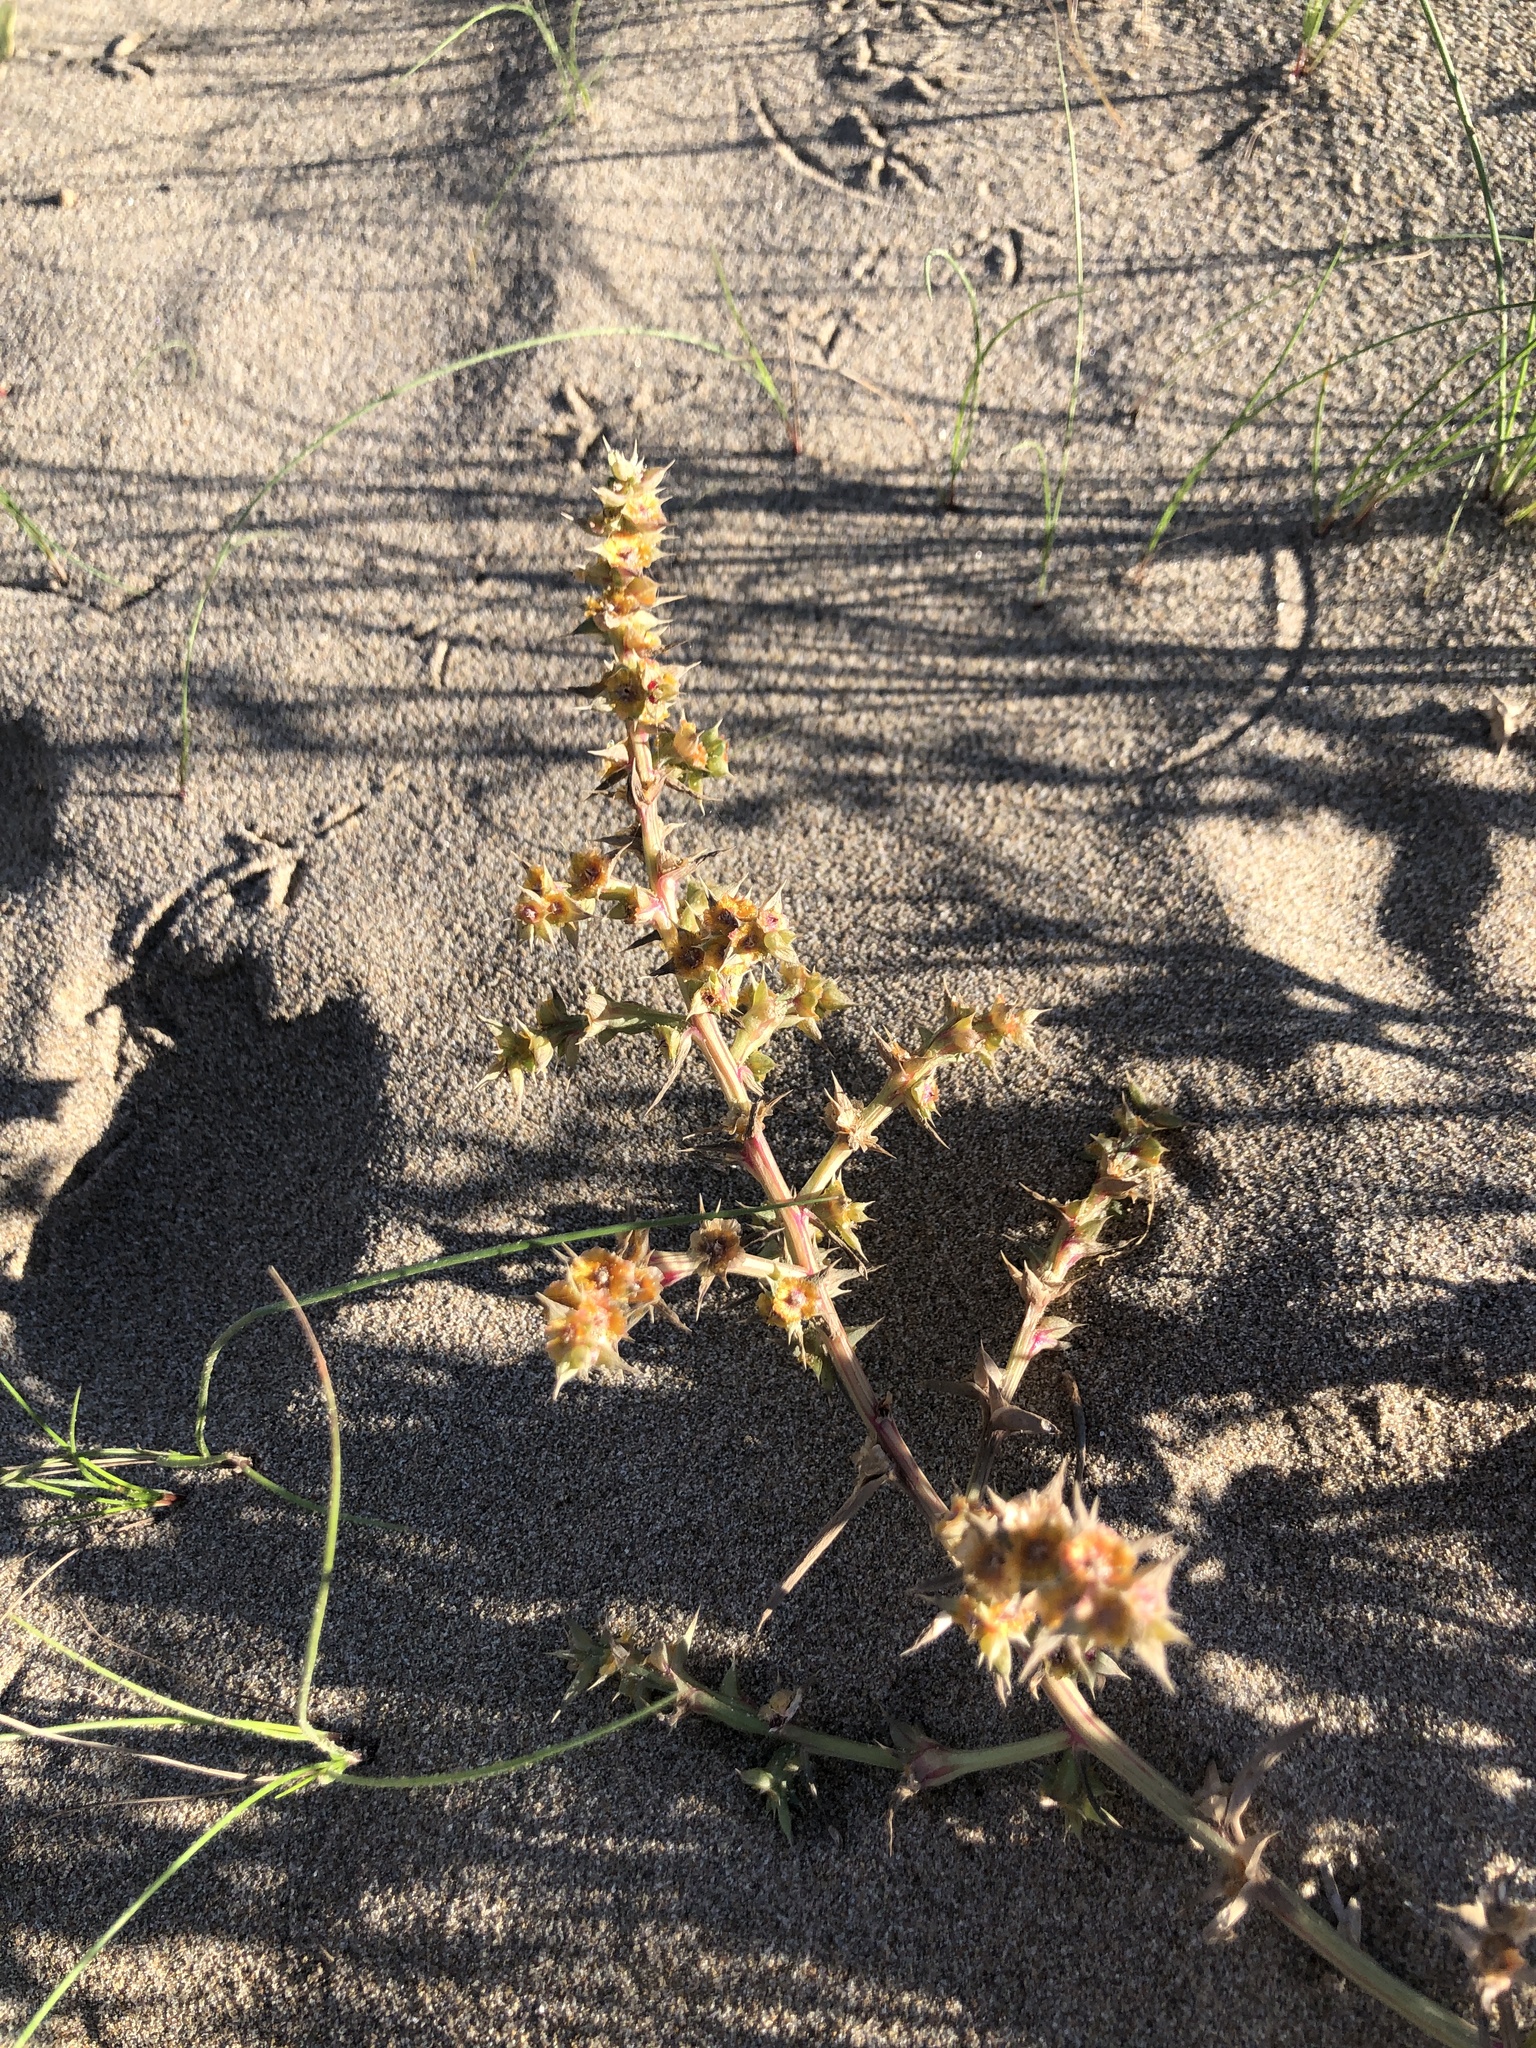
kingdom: Plantae
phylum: Tracheophyta
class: Magnoliopsida
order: Caryophyllales
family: Amaranthaceae
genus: Salsola
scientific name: Salsola kali
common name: Saltwort
